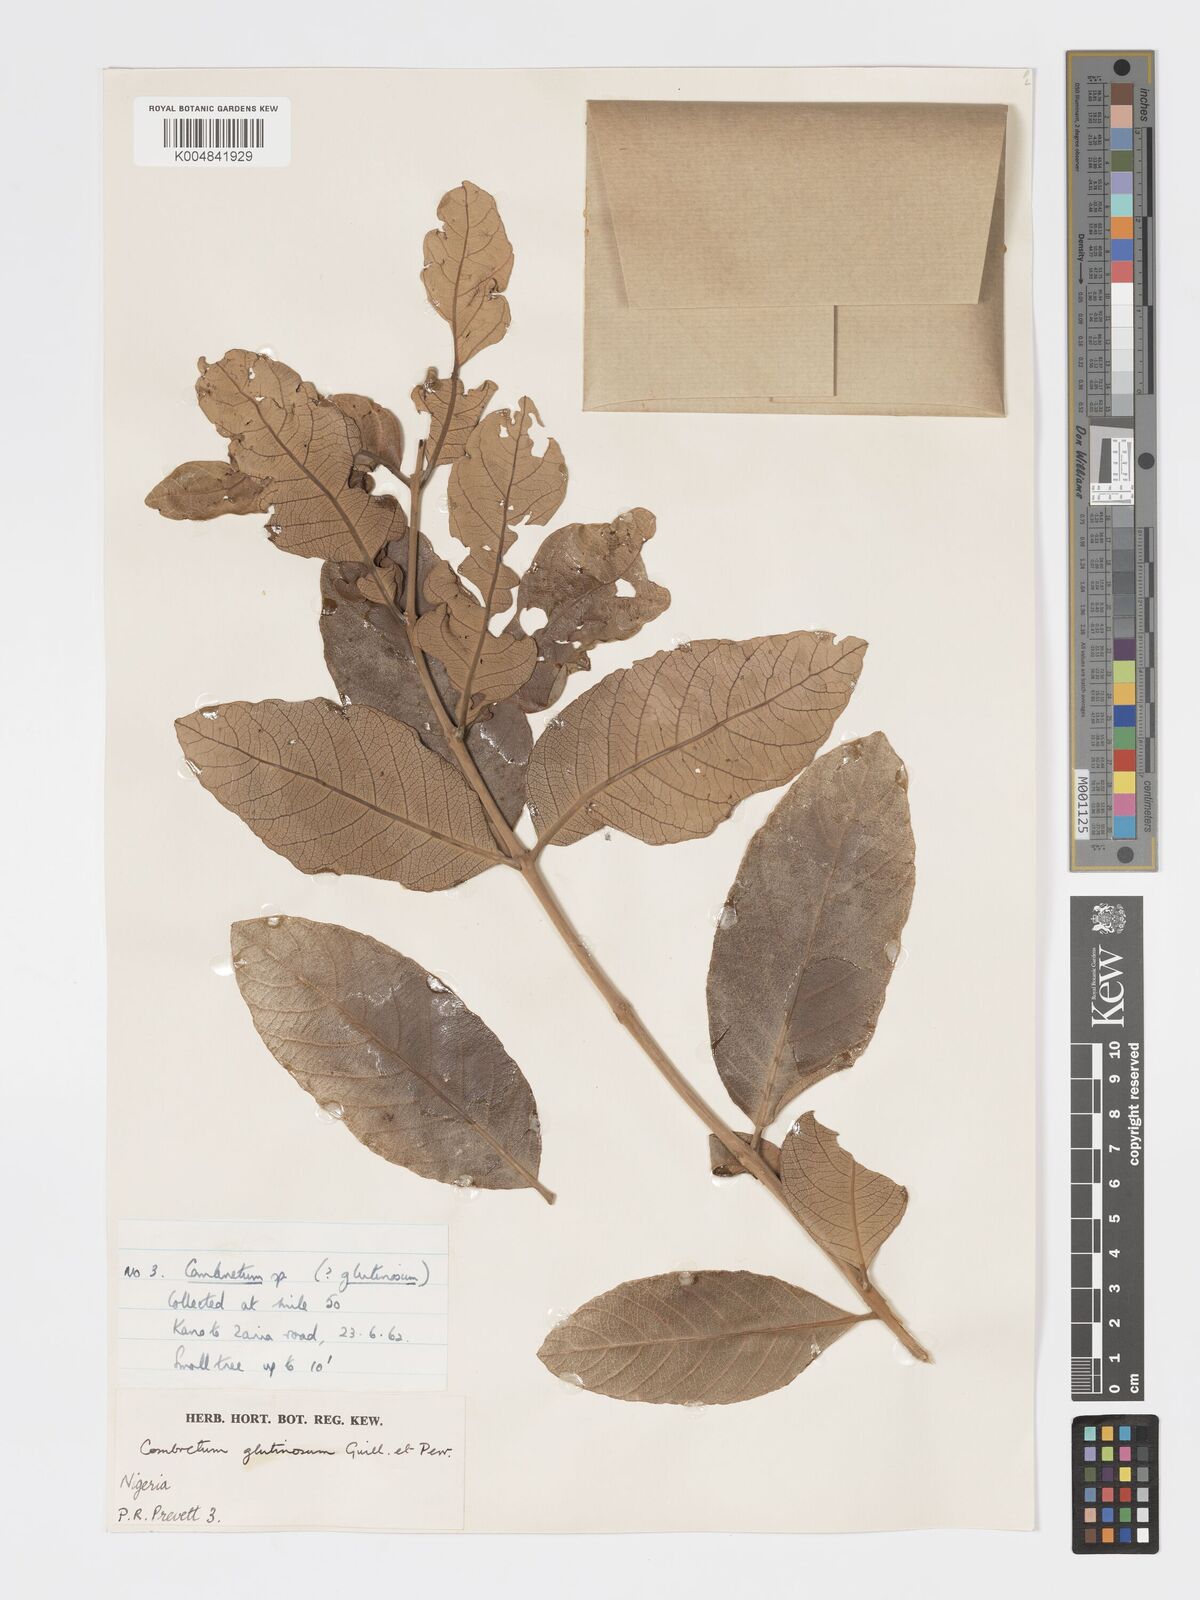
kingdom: Plantae
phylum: Tracheophyta
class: Magnoliopsida
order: Myrtales
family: Combretaceae
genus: Combretum
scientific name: Combretum
